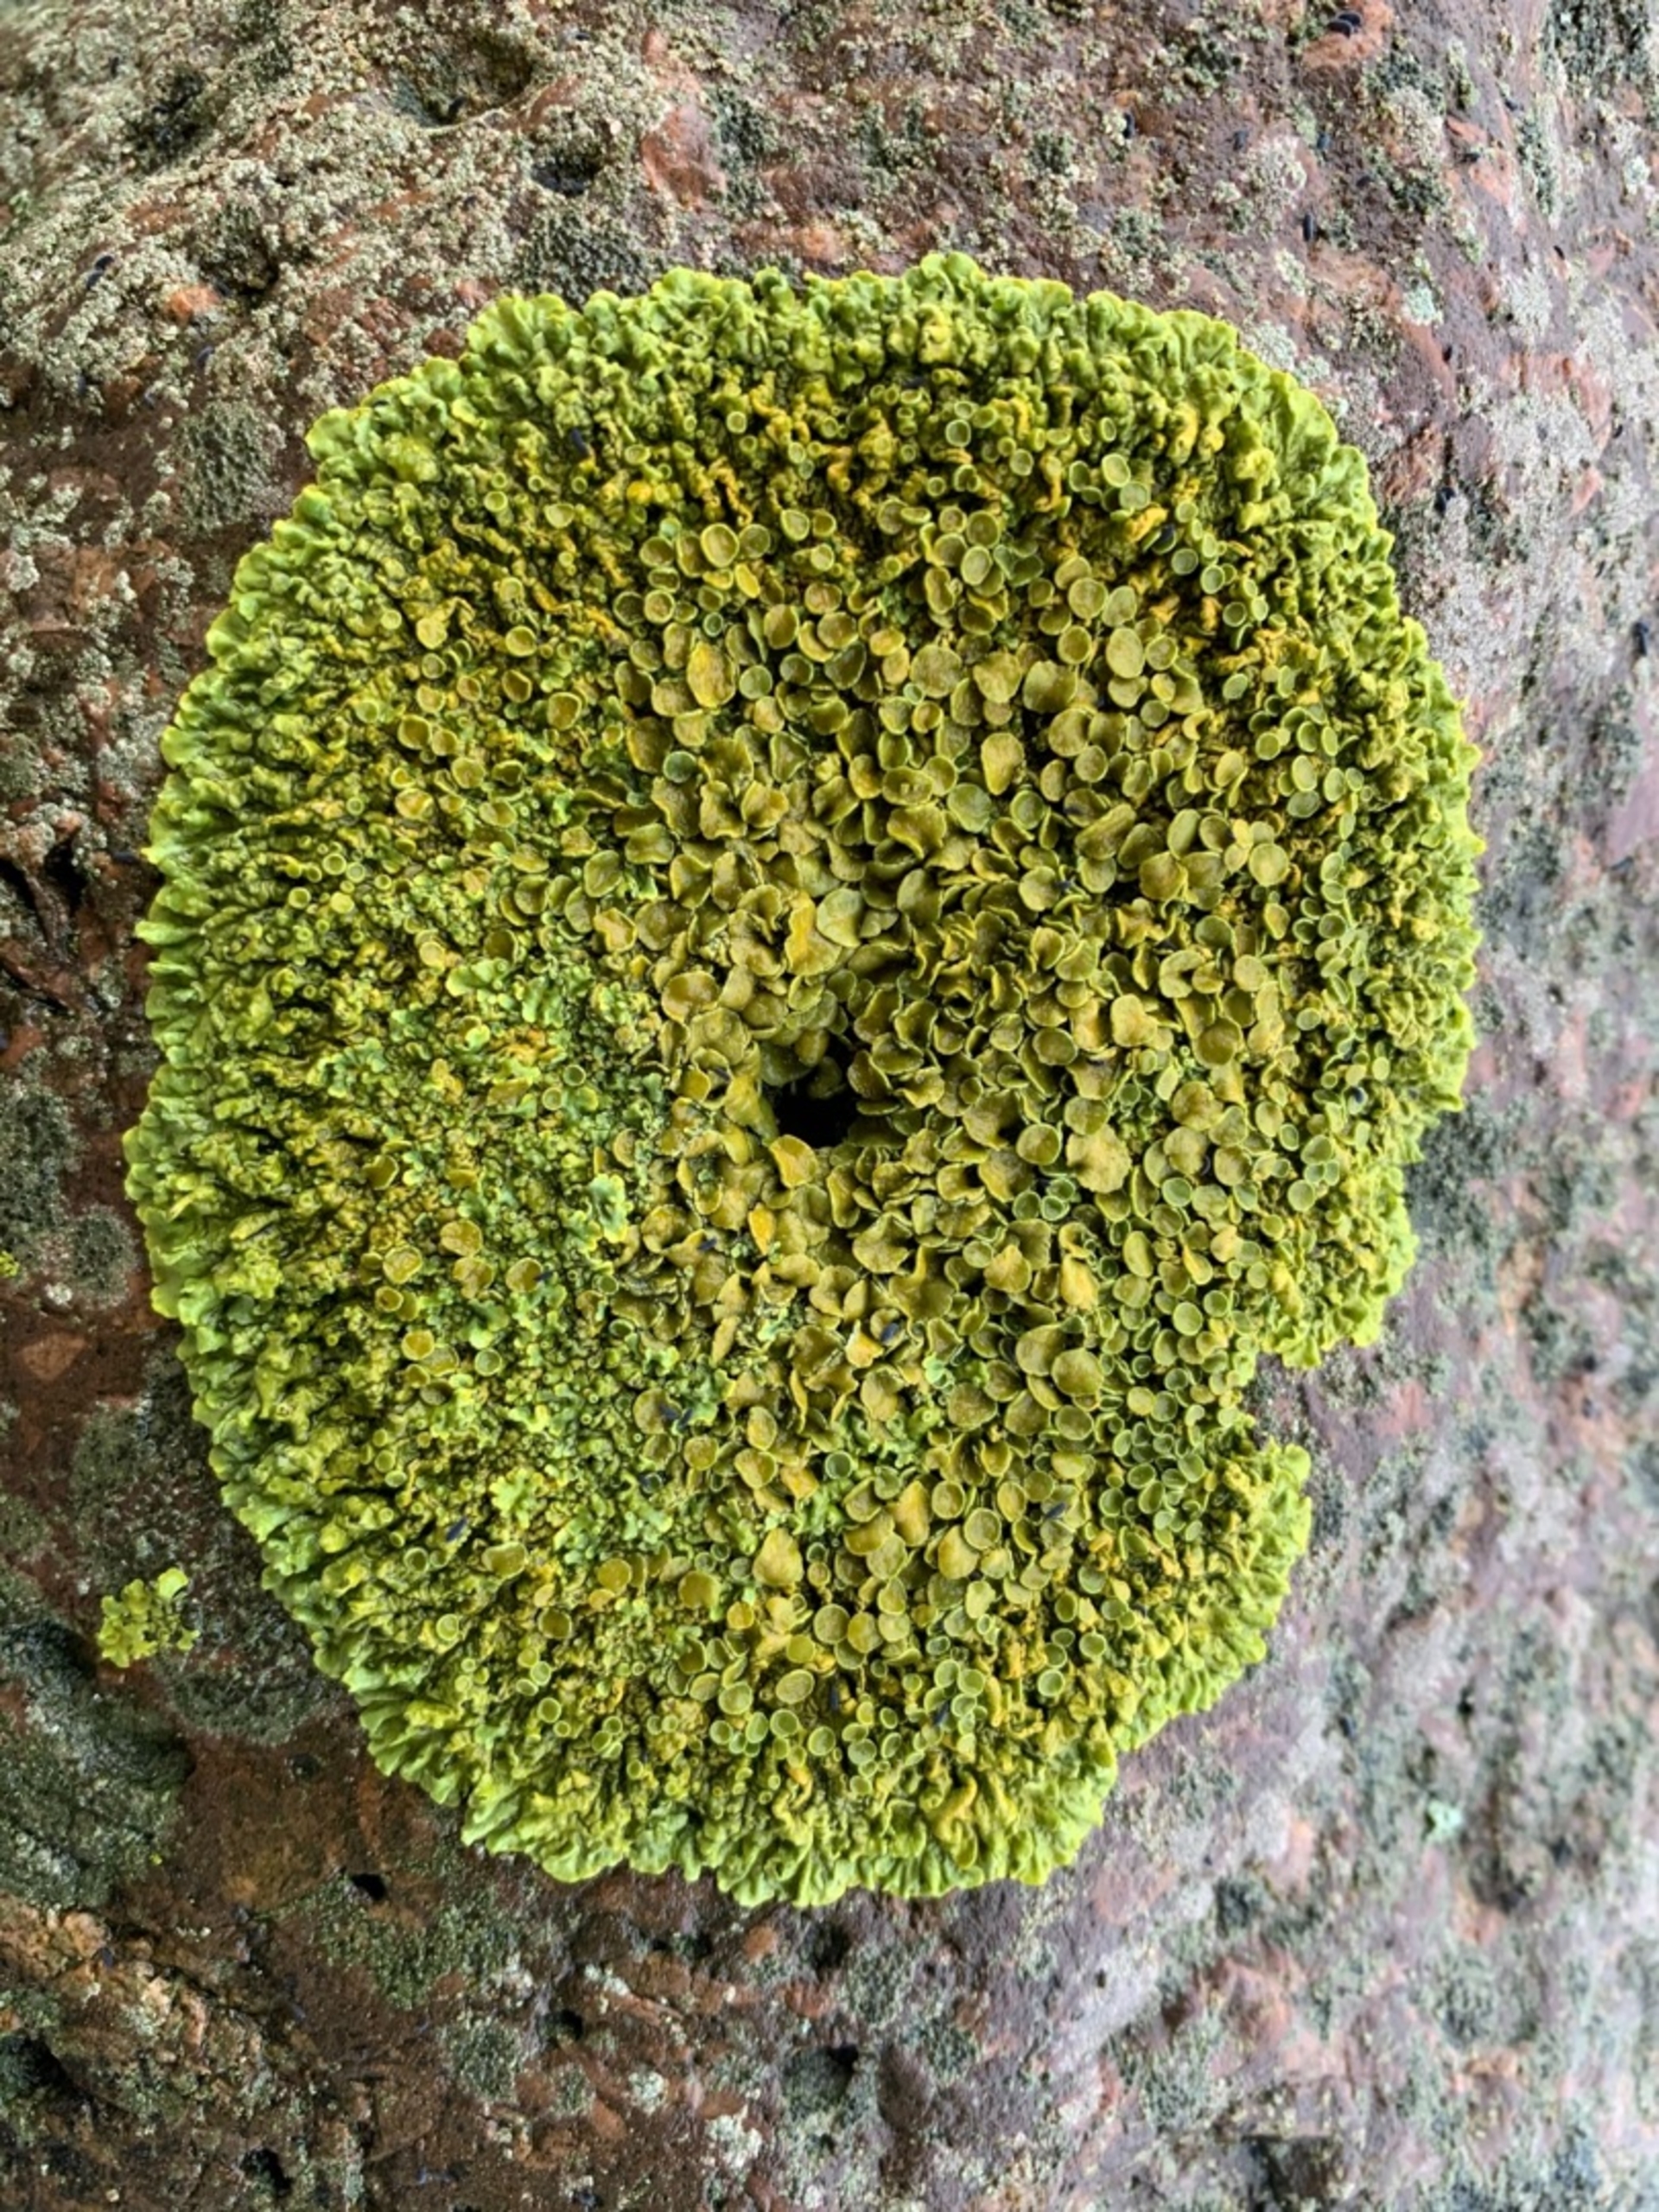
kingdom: Fungi
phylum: Ascomycota
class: Lecanoromycetes
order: Teloschistales
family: Teloschistaceae
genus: Xanthoria
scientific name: Xanthoria parietina
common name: Almindelig væggelav
